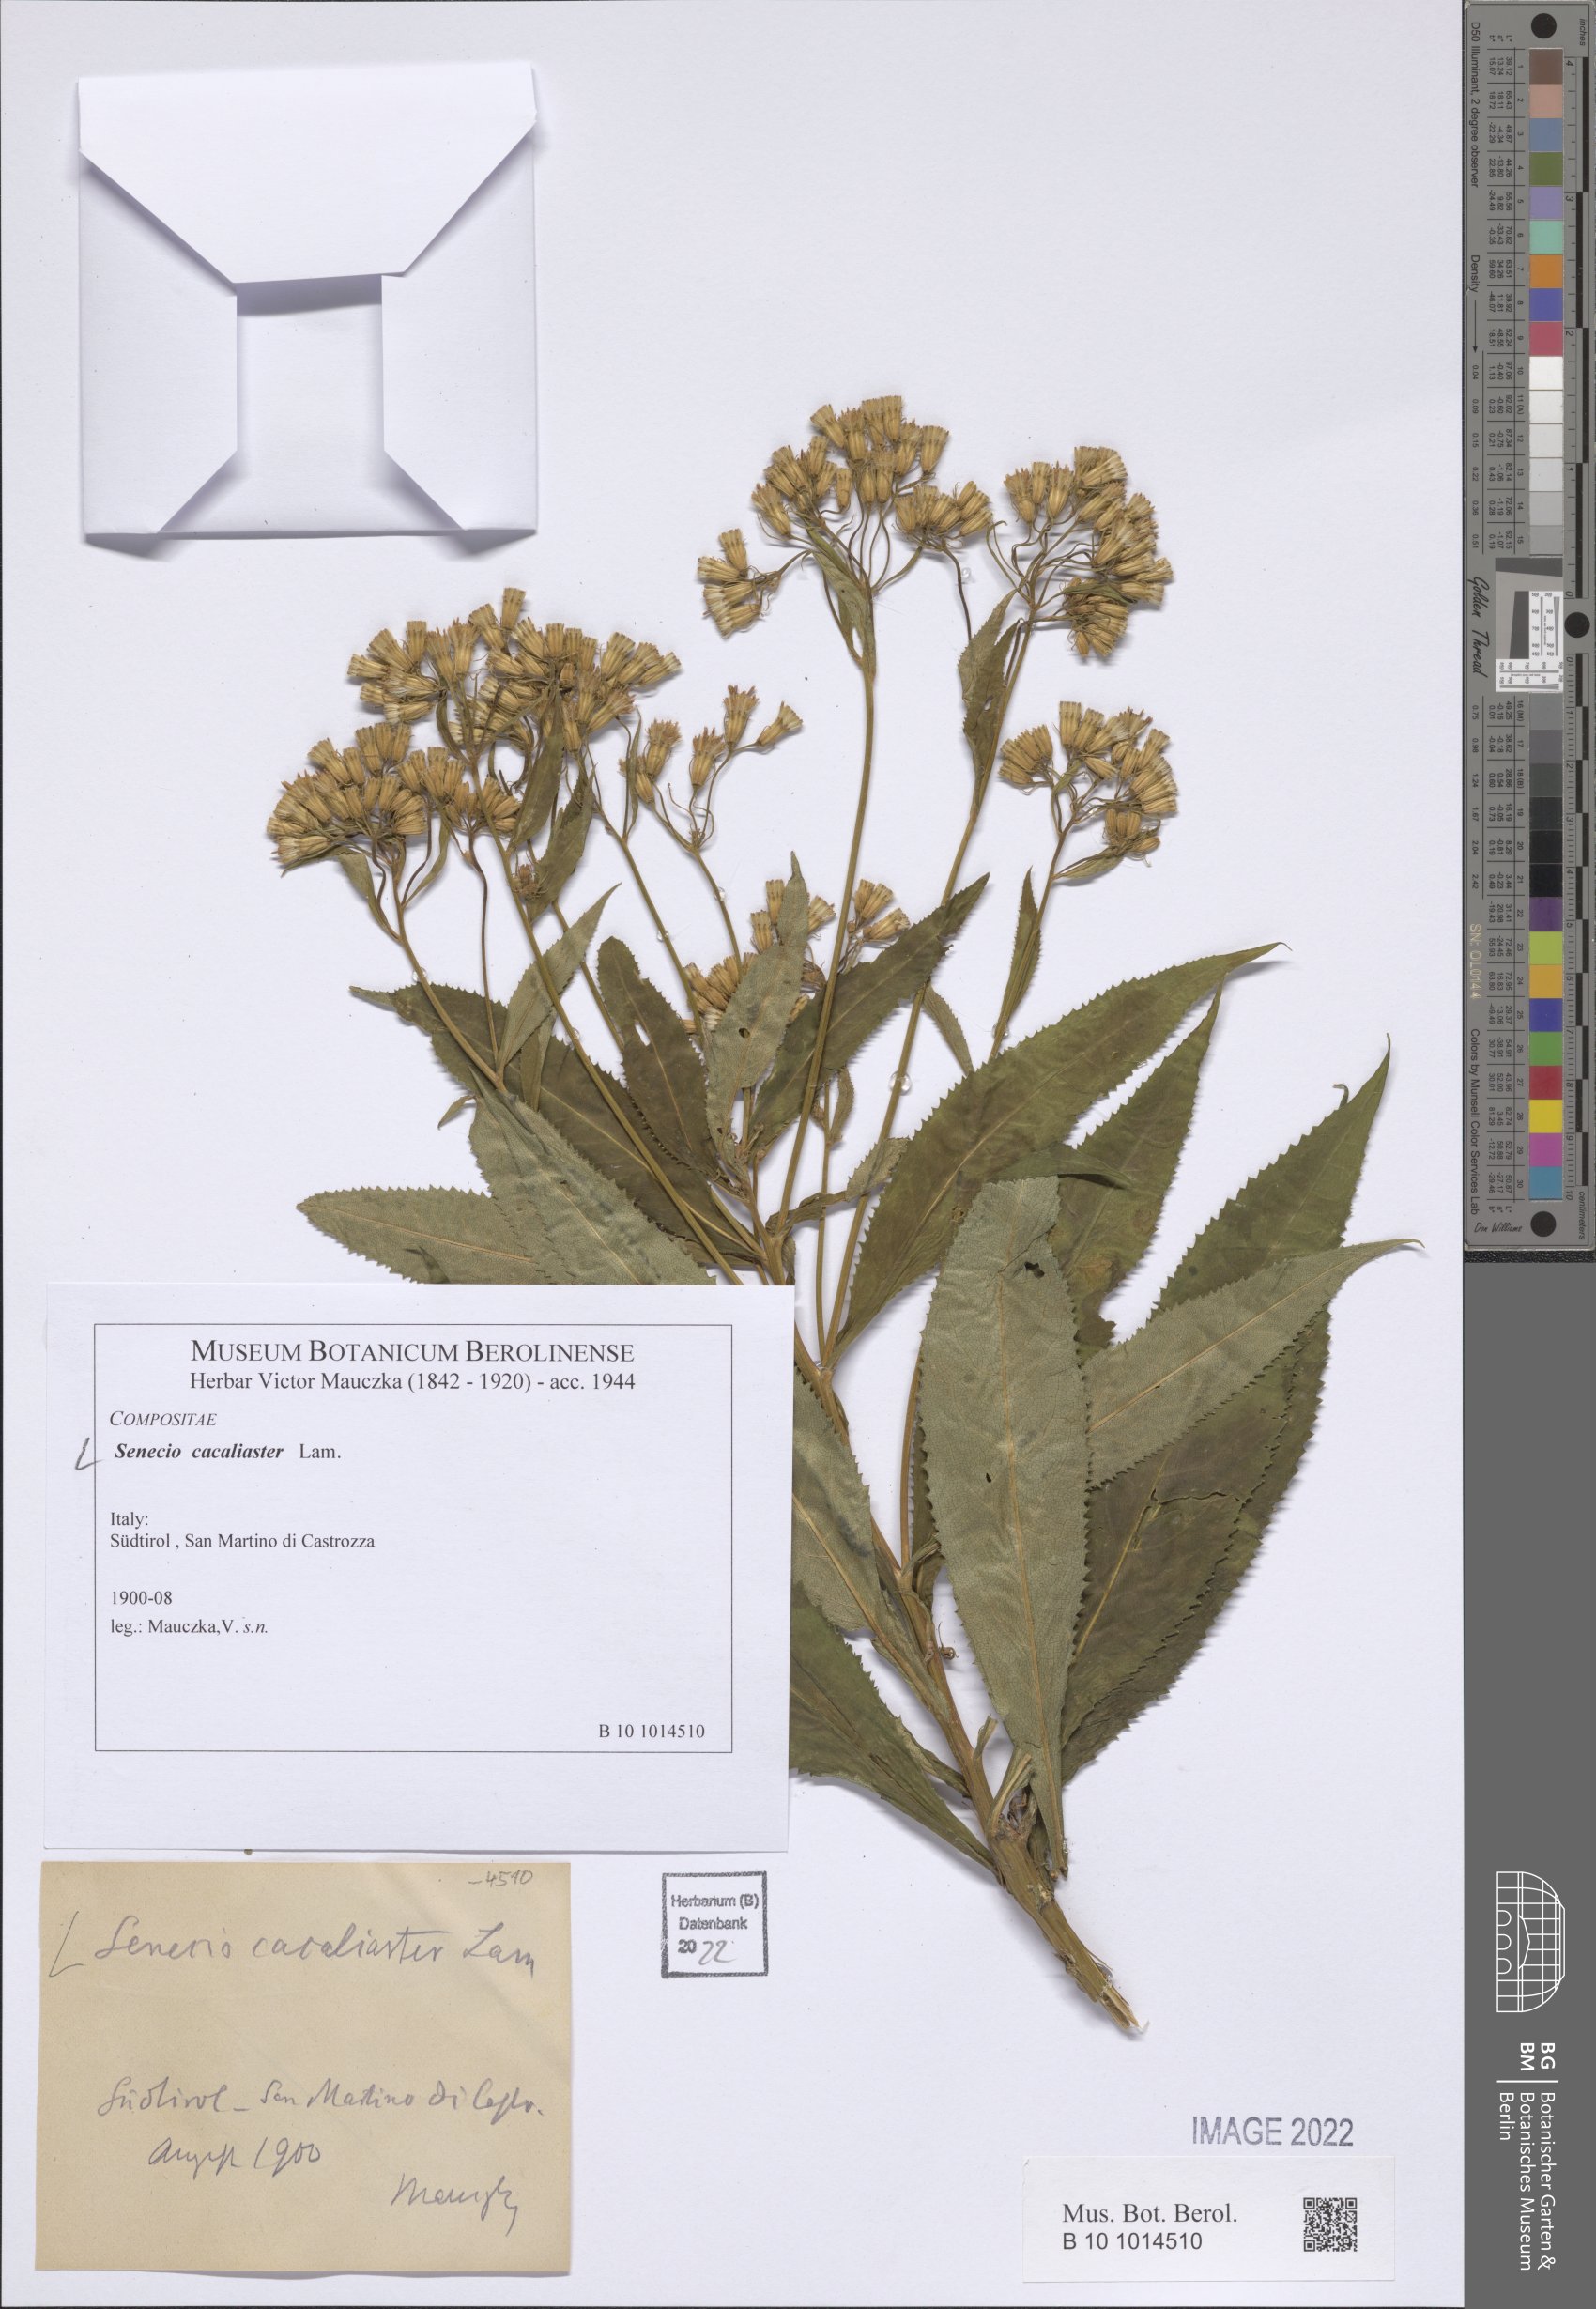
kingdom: Plantae
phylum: Tracheophyta
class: Magnoliopsida
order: Asterales
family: Asteraceae
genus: Senecio
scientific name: Senecio cacaliaster
